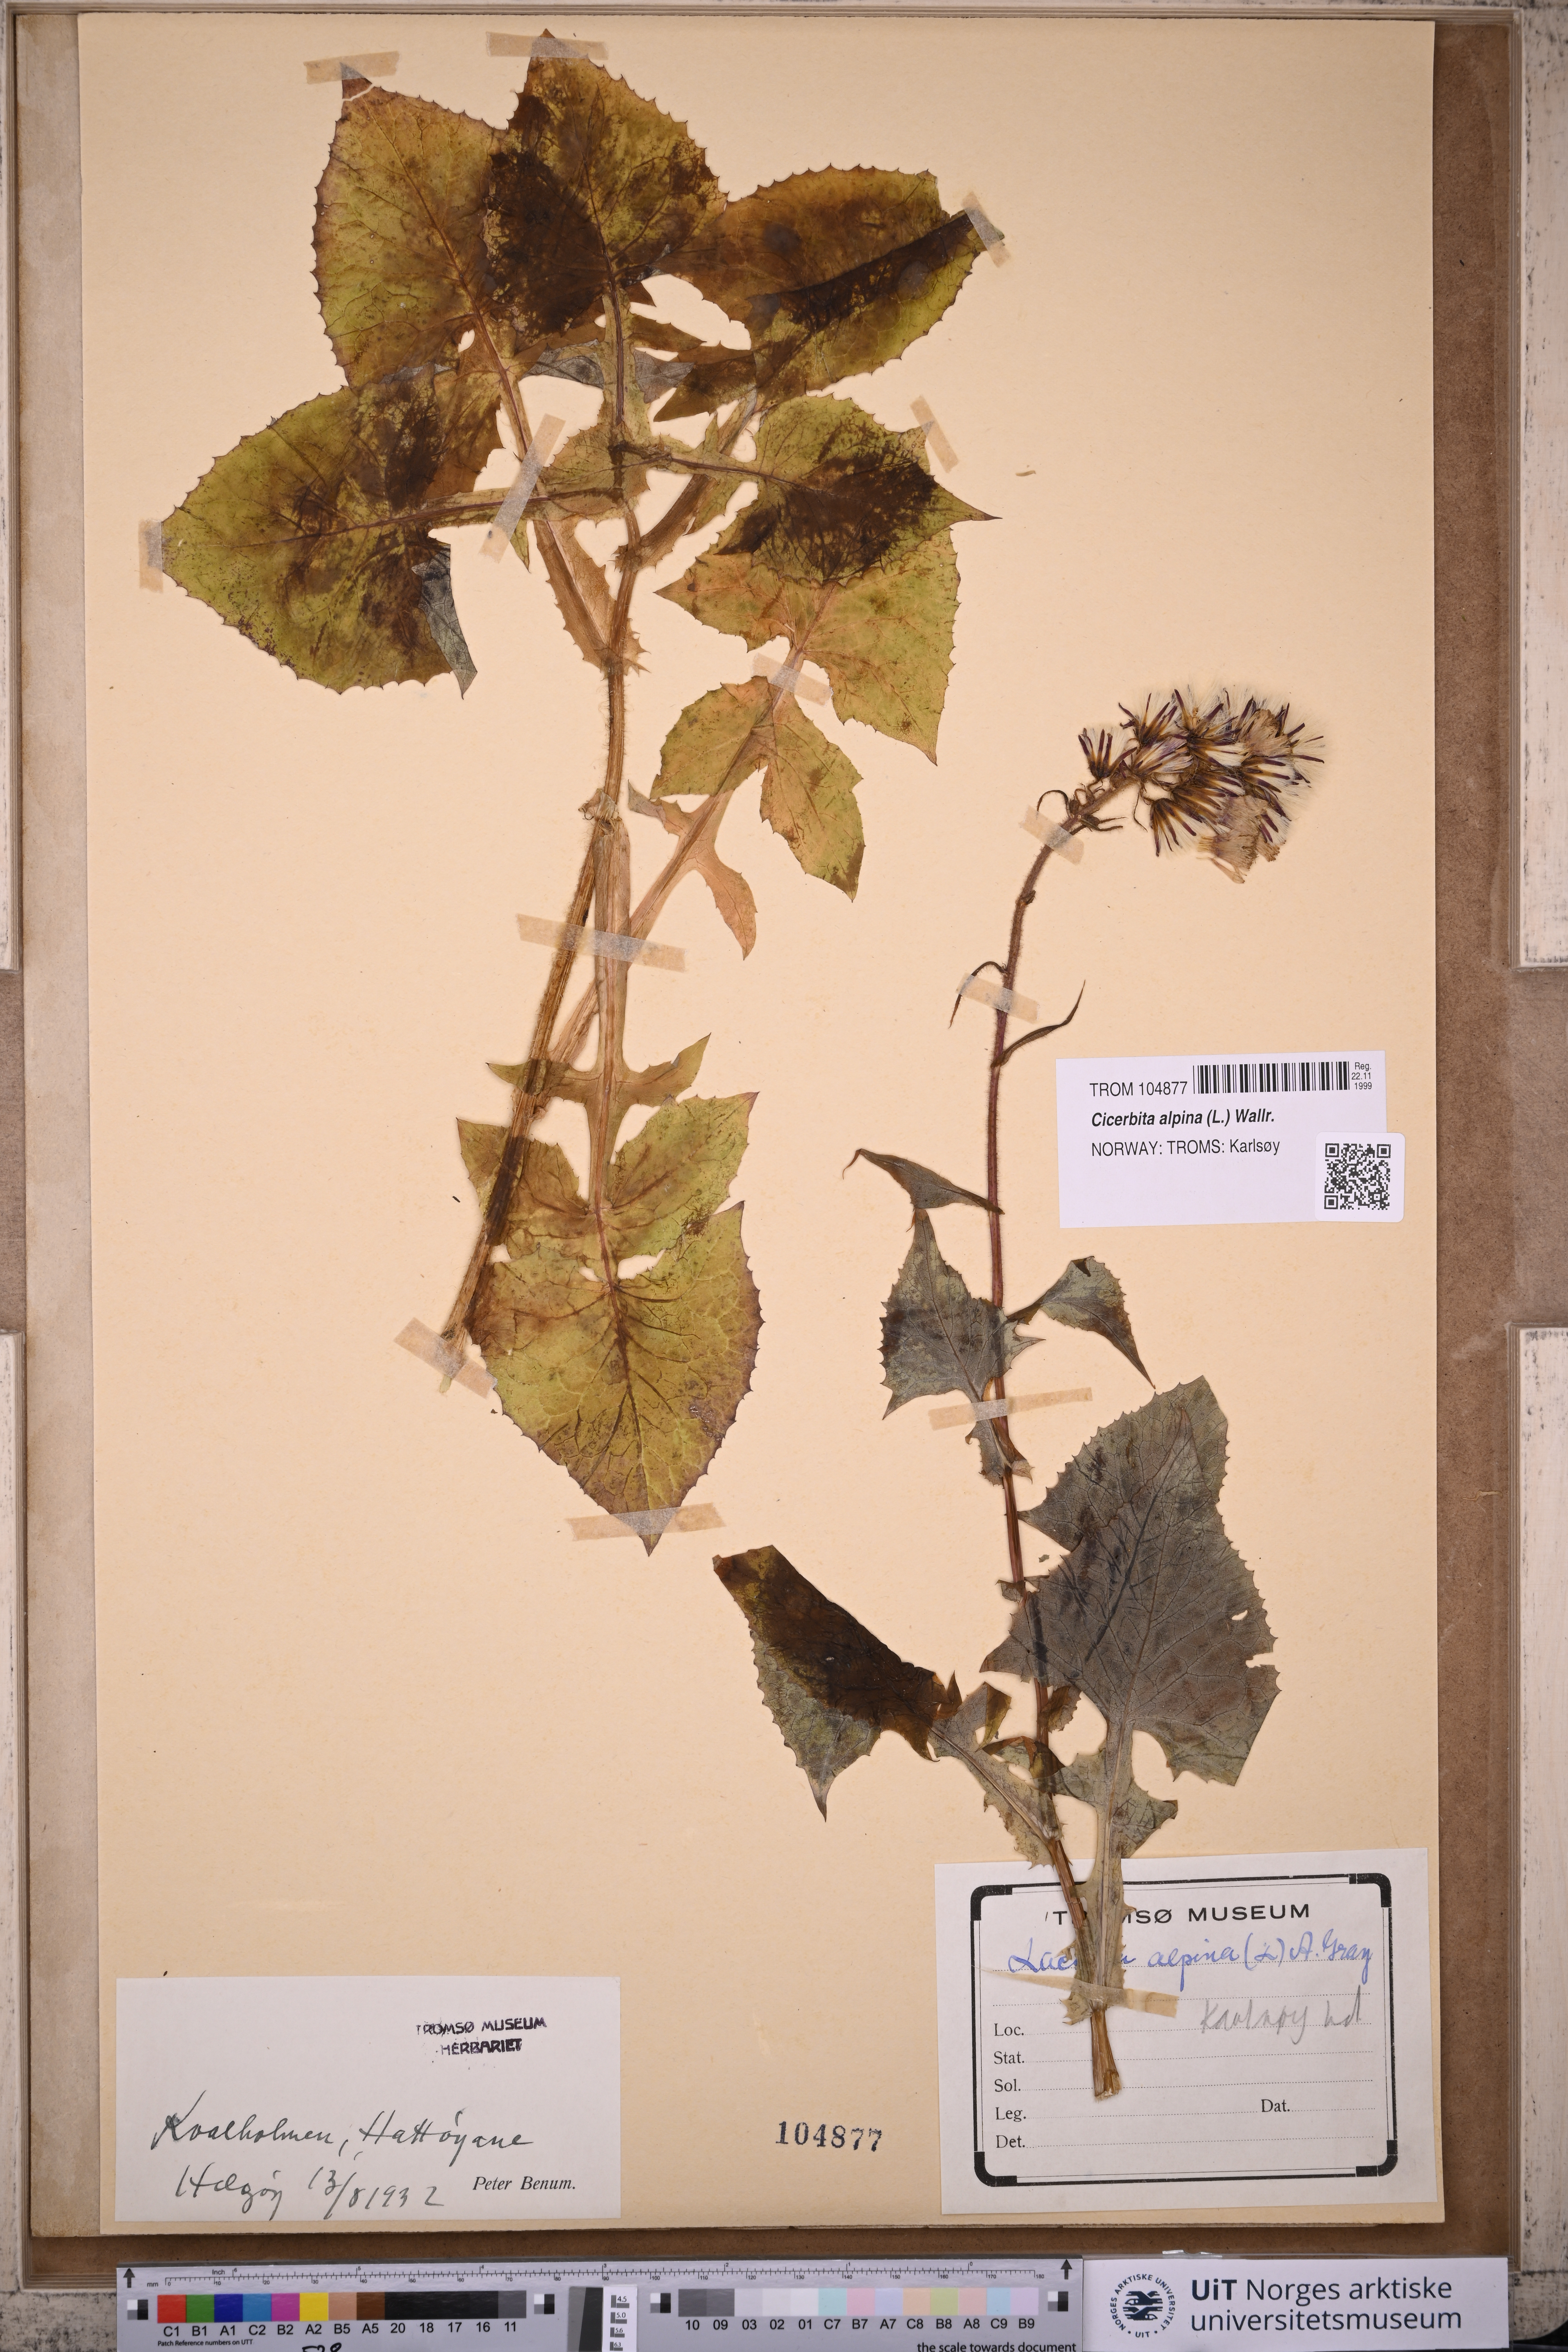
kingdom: Plantae
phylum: Tracheophyta
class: Magnoliopsida
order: Asterales
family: Asteraceae
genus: Cicerbita
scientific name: Cicerbita alpina
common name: Alpine blue-sow-thistle
